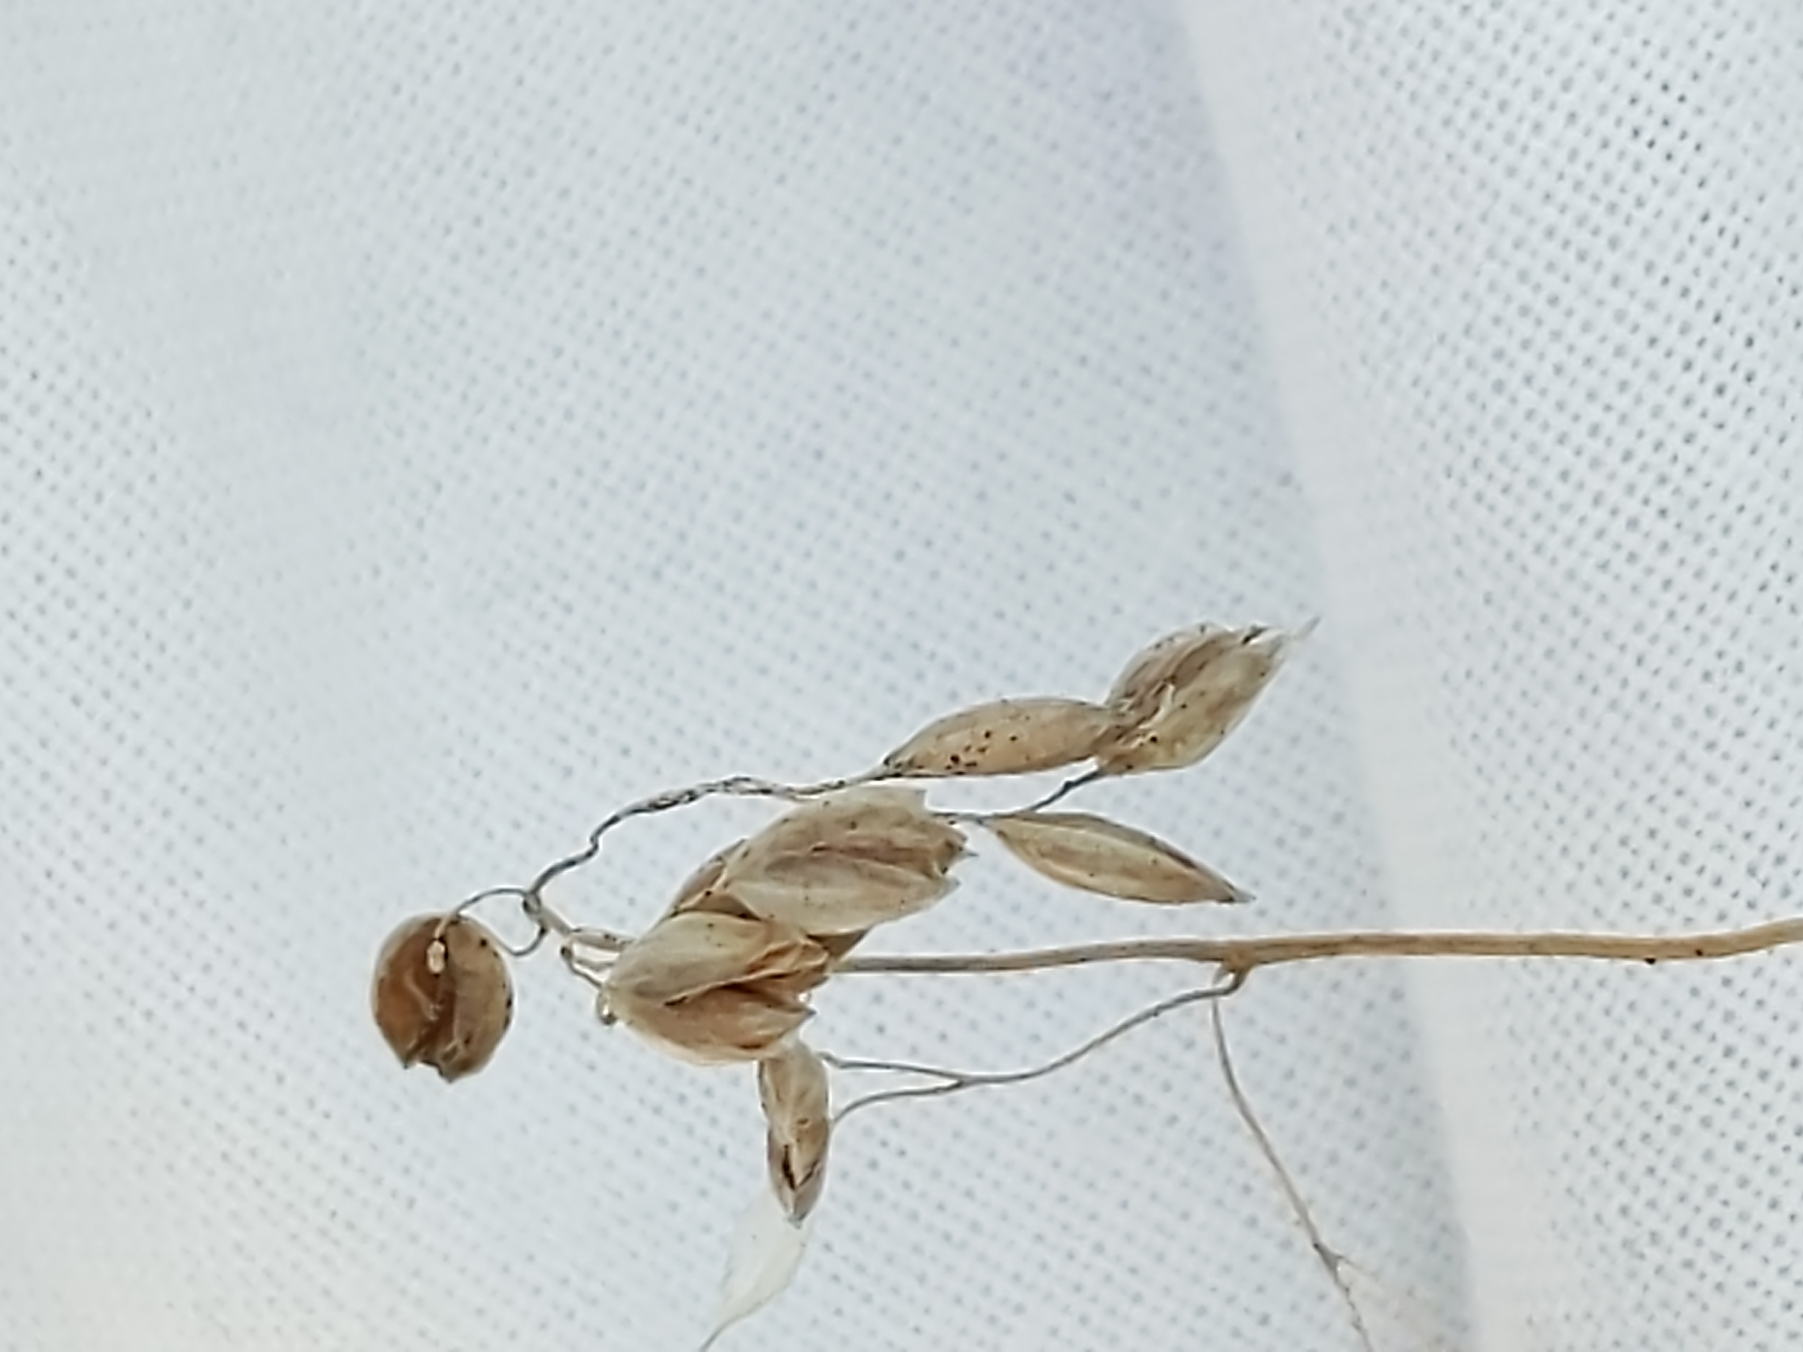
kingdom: Plantae
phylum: Tracheophyta
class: Liliopsida
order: Poales
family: Poaceae
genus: Anthoxanthum
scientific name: Anthoxanthum nitens
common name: Festgræs
